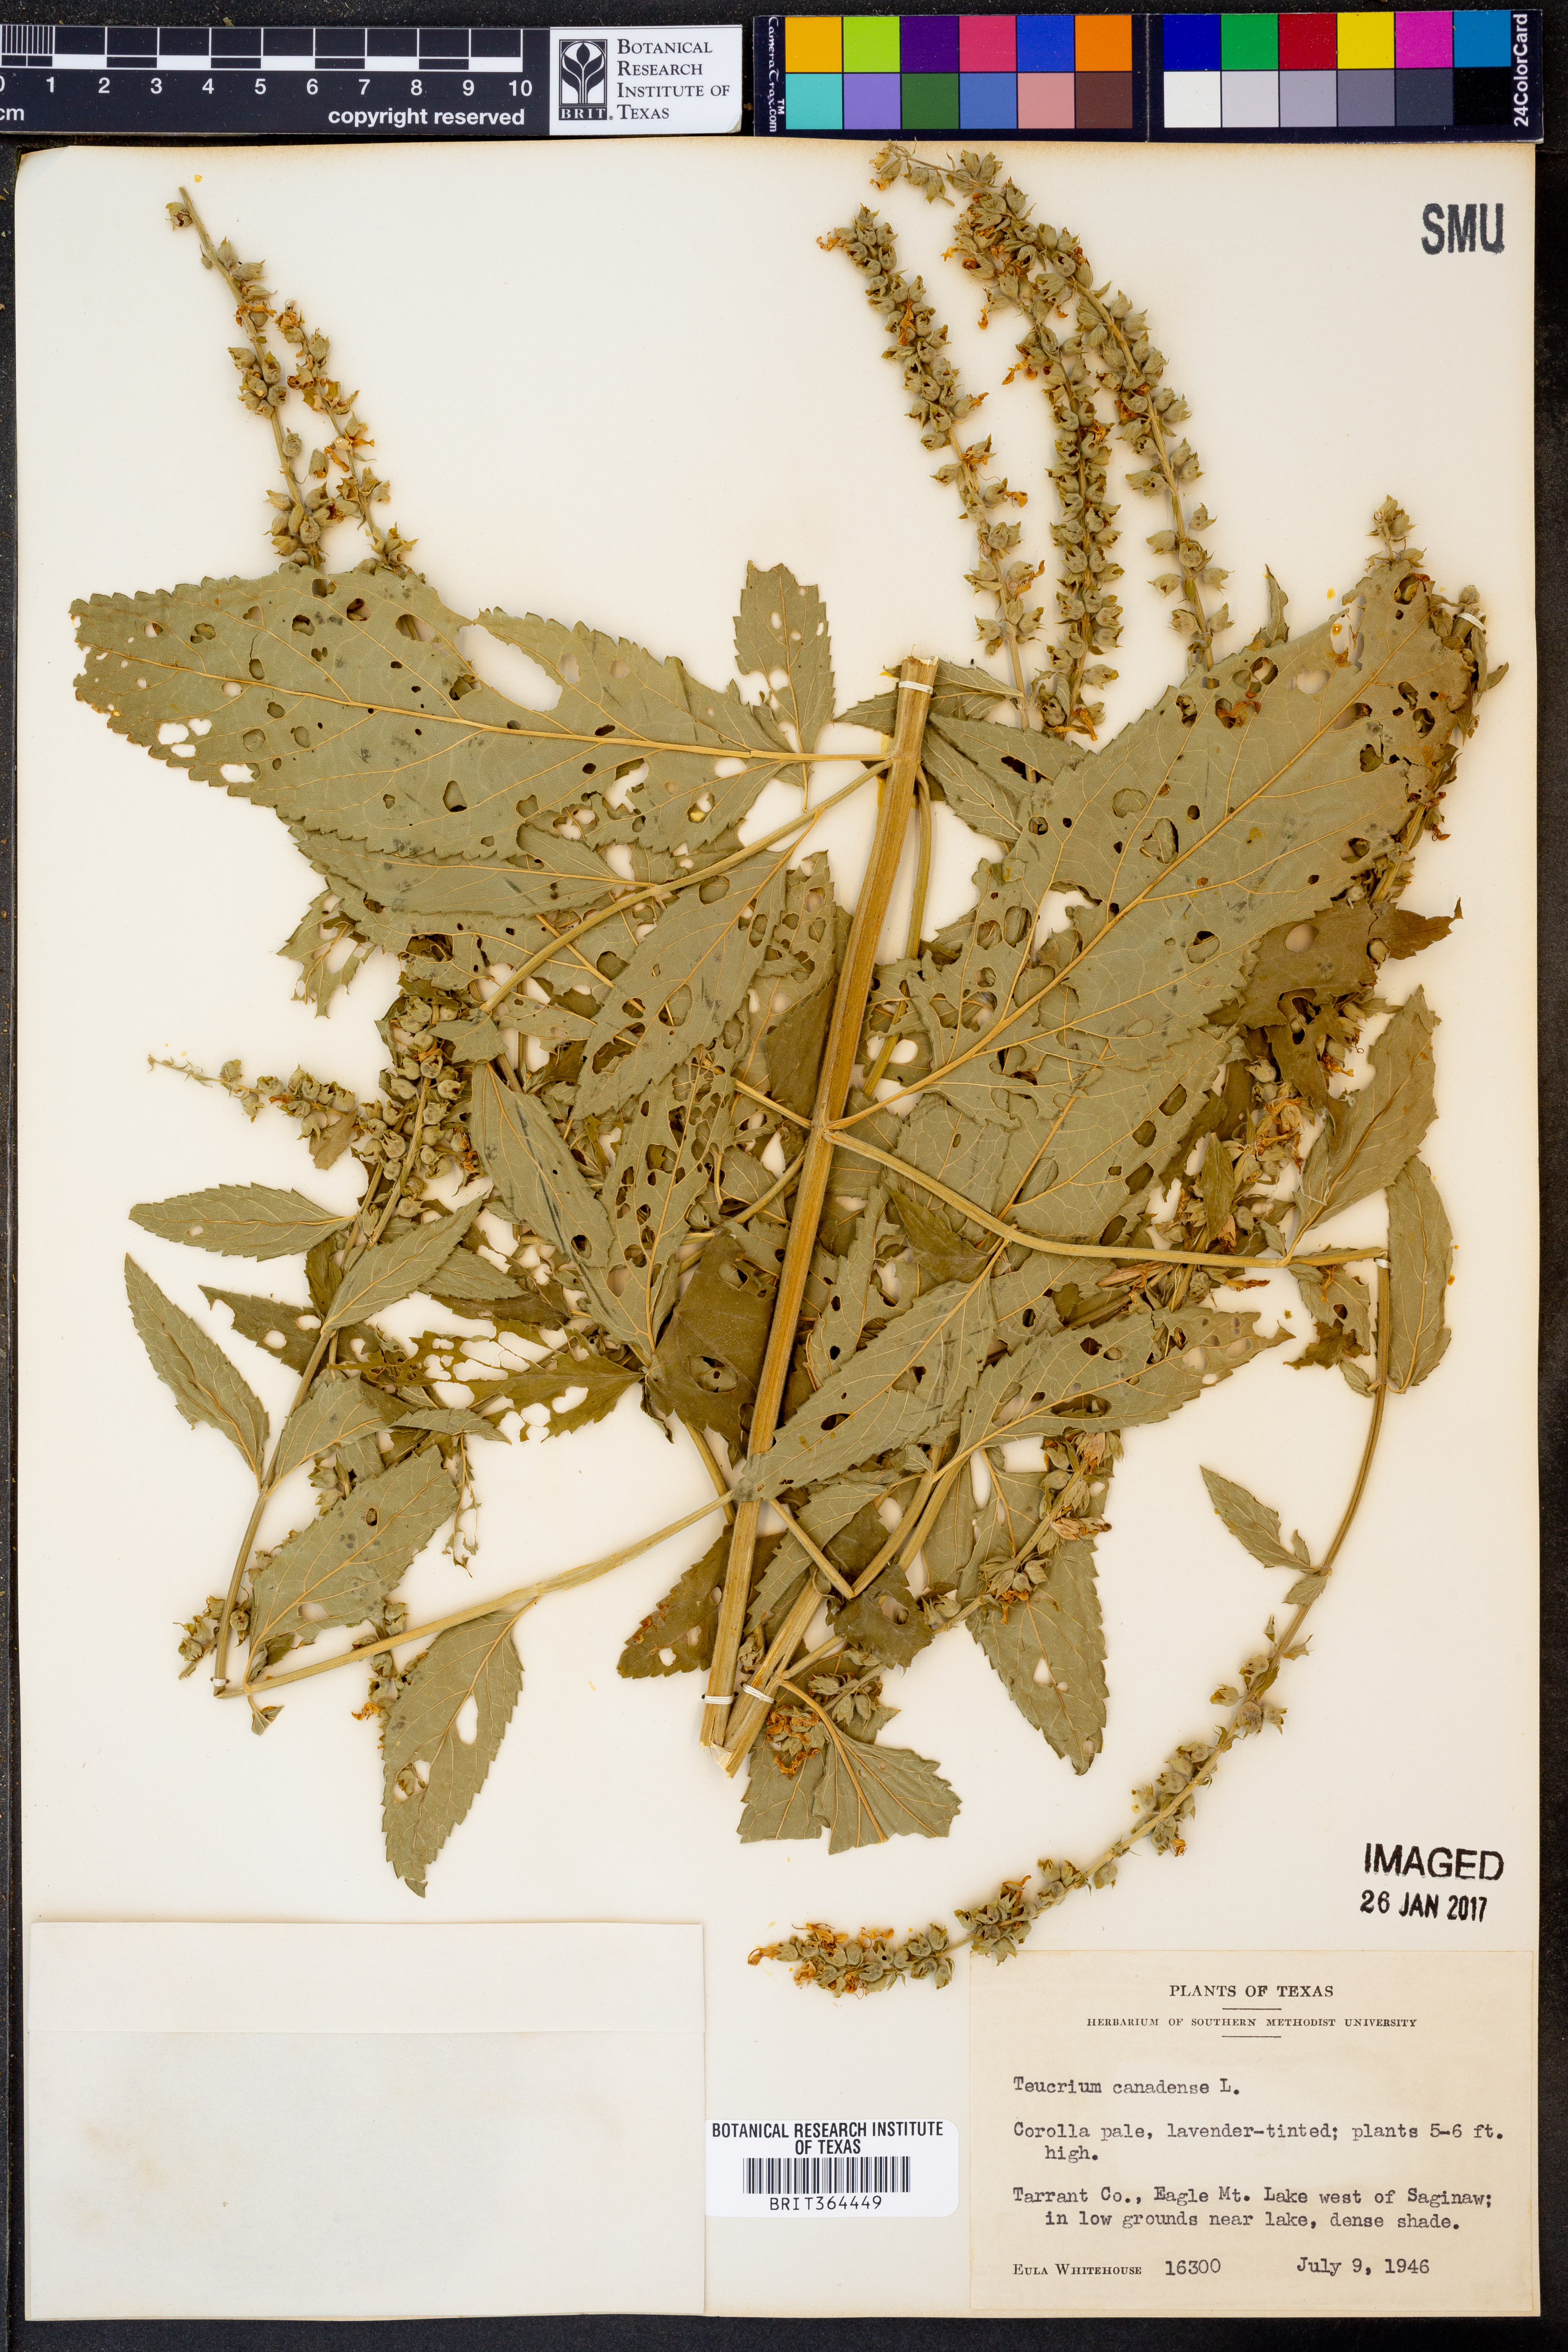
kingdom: Plantae
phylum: Tracheophyta
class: Magnoliopsida
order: Lamiales
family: Lamiaceae
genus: Teucrium
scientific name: Teucrium canadense
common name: American germander
